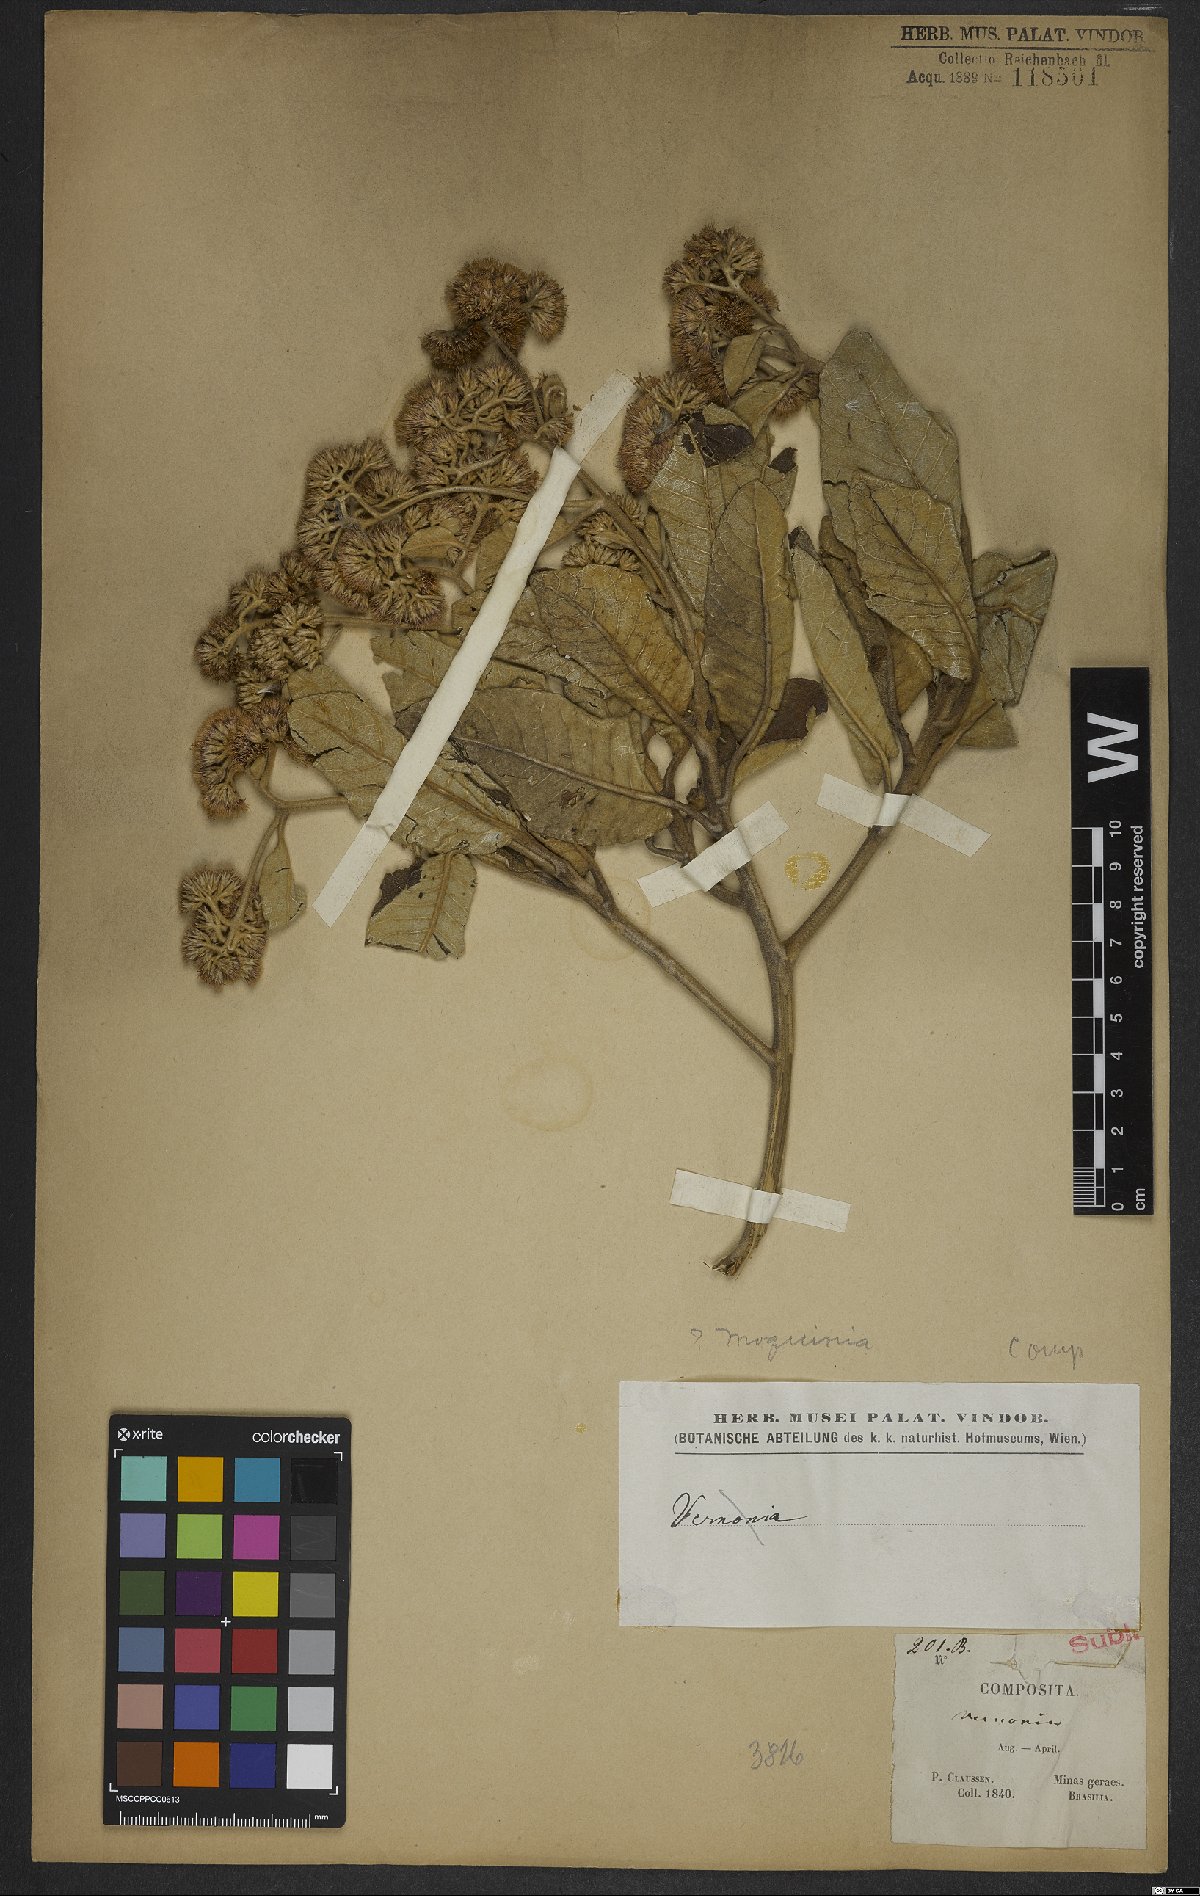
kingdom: Plantae
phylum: Tracheophyta
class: Magnoliopsida
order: Asterales
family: Asteraceae
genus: Moquinia
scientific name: Moquinia
